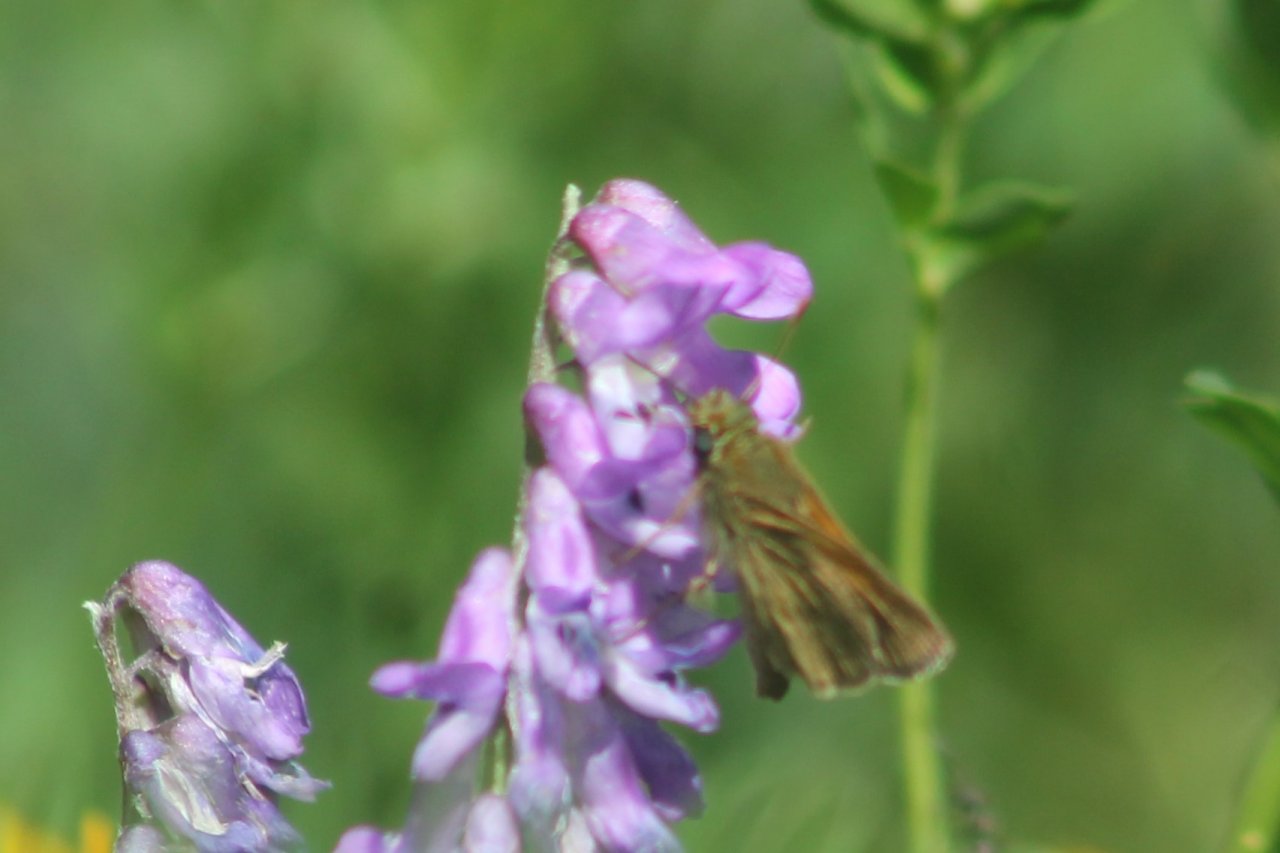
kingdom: Animalia
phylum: Arthropoda
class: Insecta
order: Lepidoptera
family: Hesperiidae
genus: Mastor
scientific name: Mastor vialis
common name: Common Roadside-Skipper
